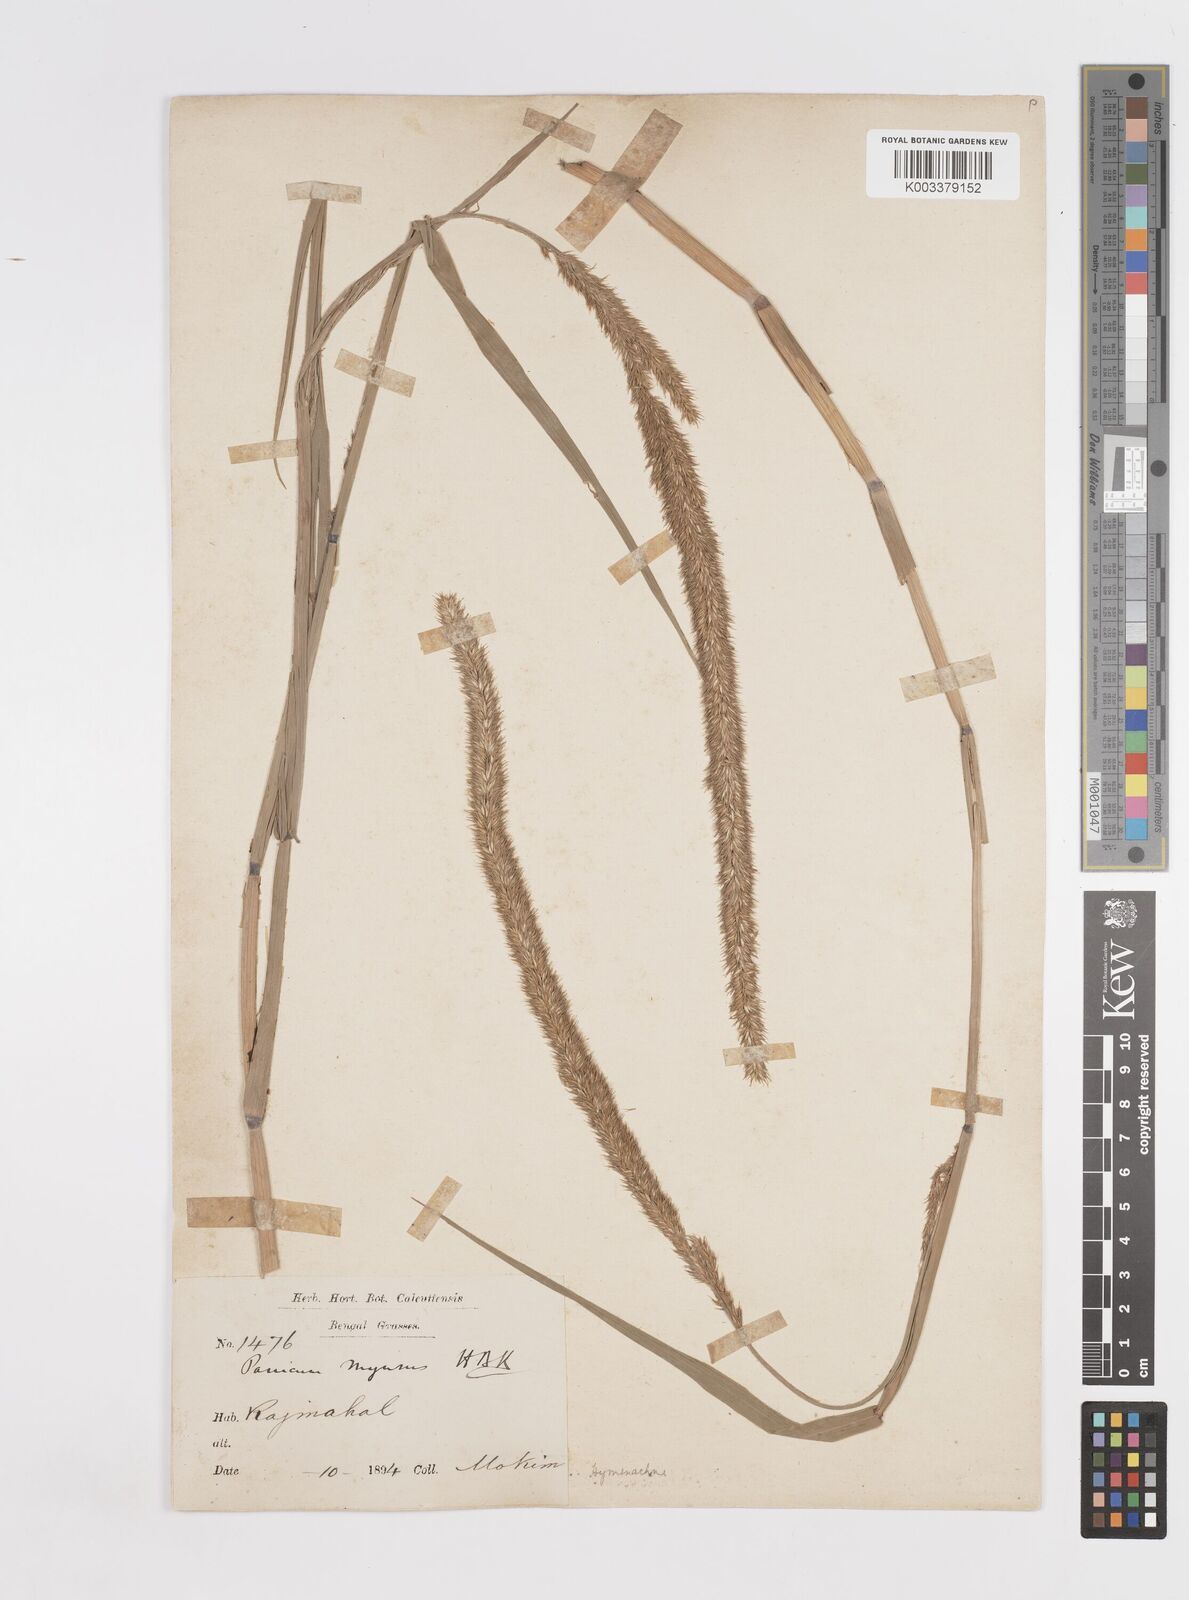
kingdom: Plantae
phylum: Tracheophyta
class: Liliopsida
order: Poales
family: Poaceae
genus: Hymenachne
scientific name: Hymenachne amplexicaulis
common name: Olive hymenachne
